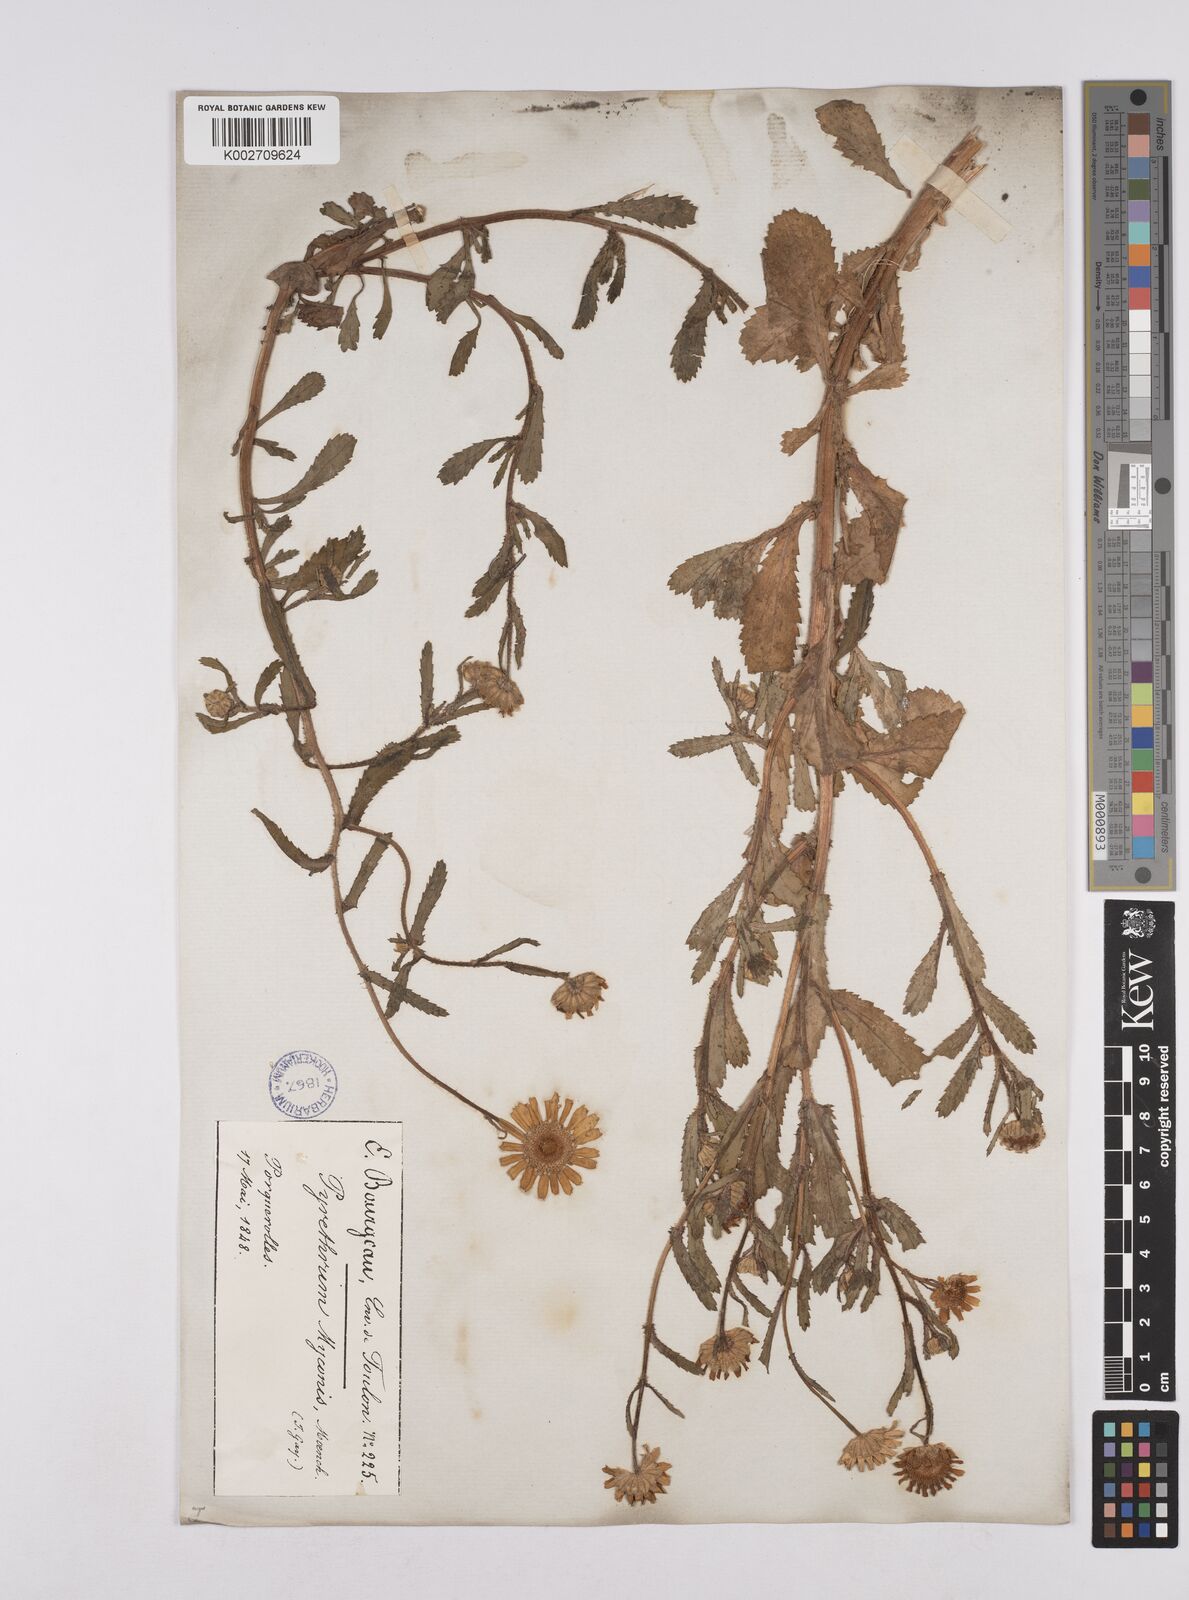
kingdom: Plantae
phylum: Tracheophyta
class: Magnoliopsida
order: Asterales
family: Asteraceae
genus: Coleostephus
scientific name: Coleostephus myconis
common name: Mediterranean marigold
